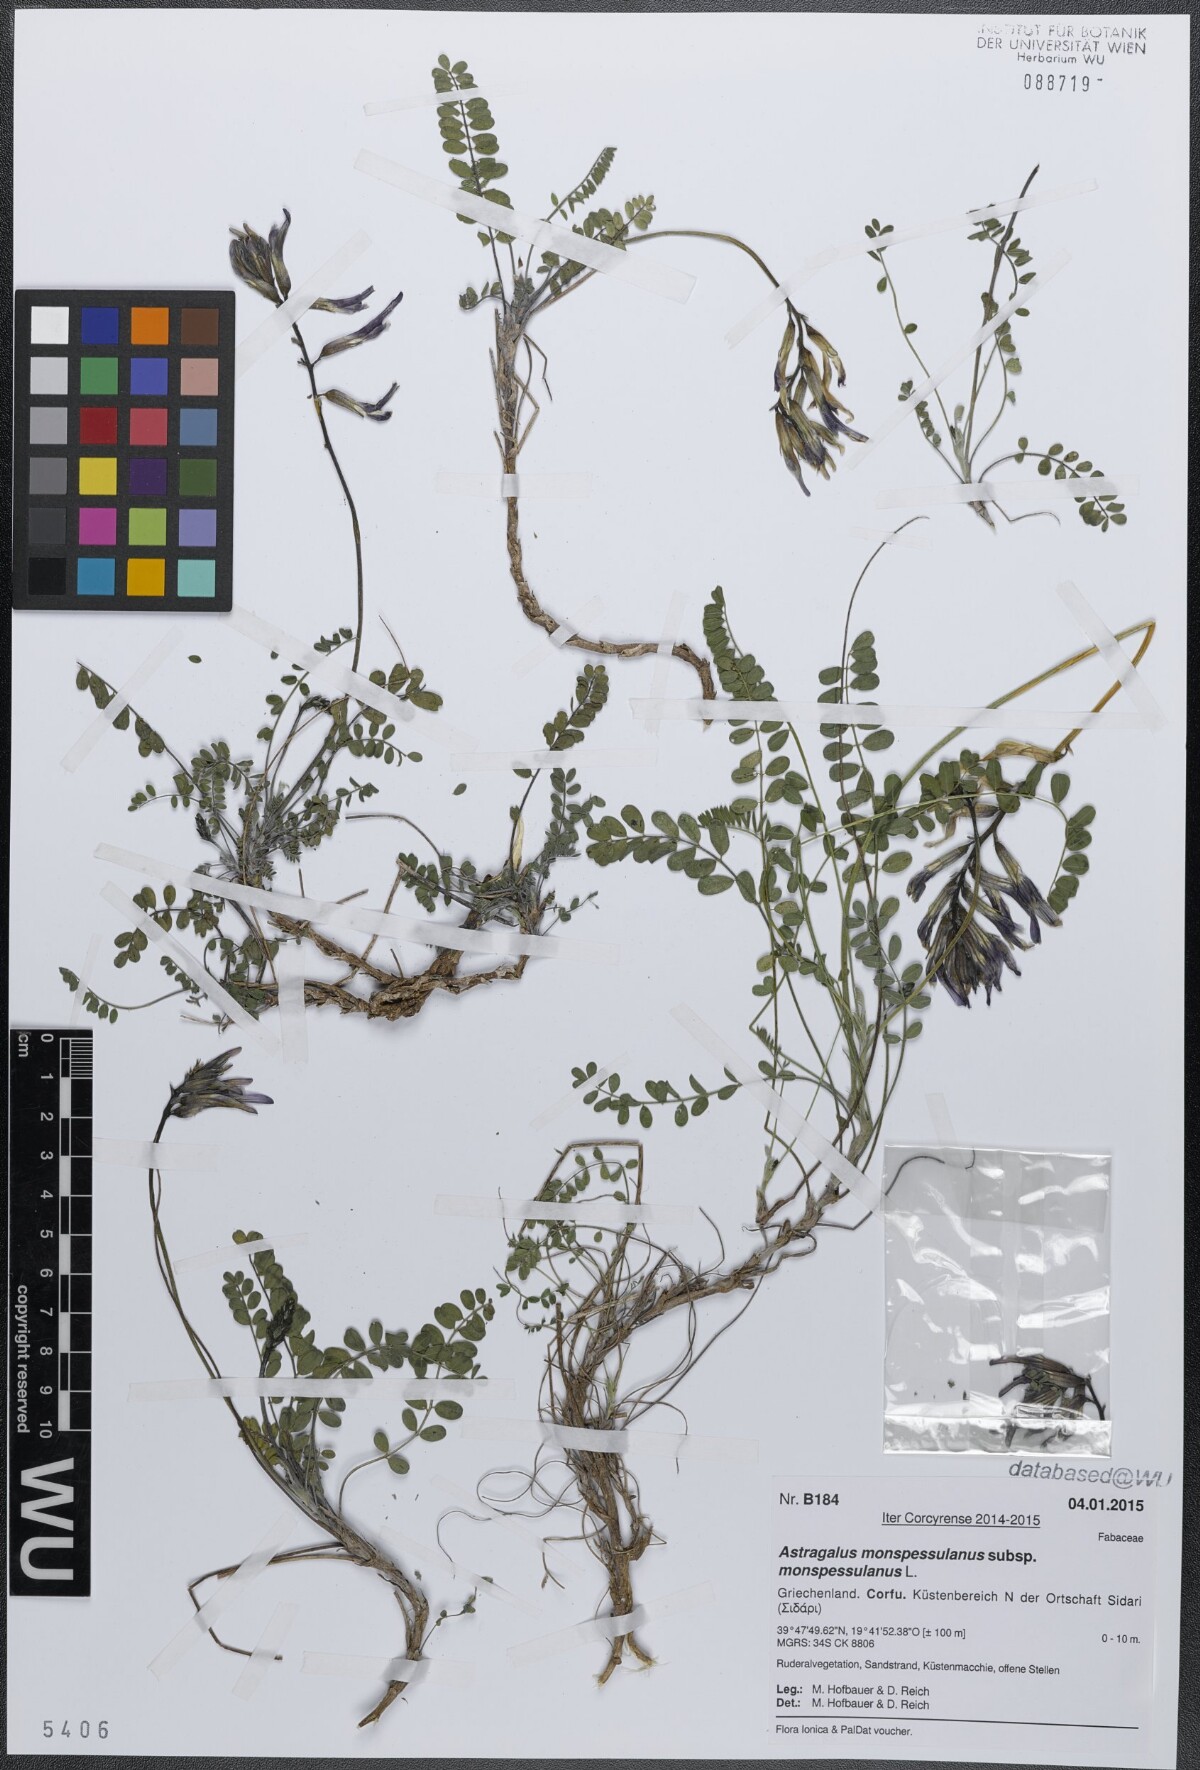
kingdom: Plantae
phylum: Tracheophyta
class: Magnoliopsida
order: Fabales
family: Fabaceae
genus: Astragalus
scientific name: Astragalus monspessulanus
